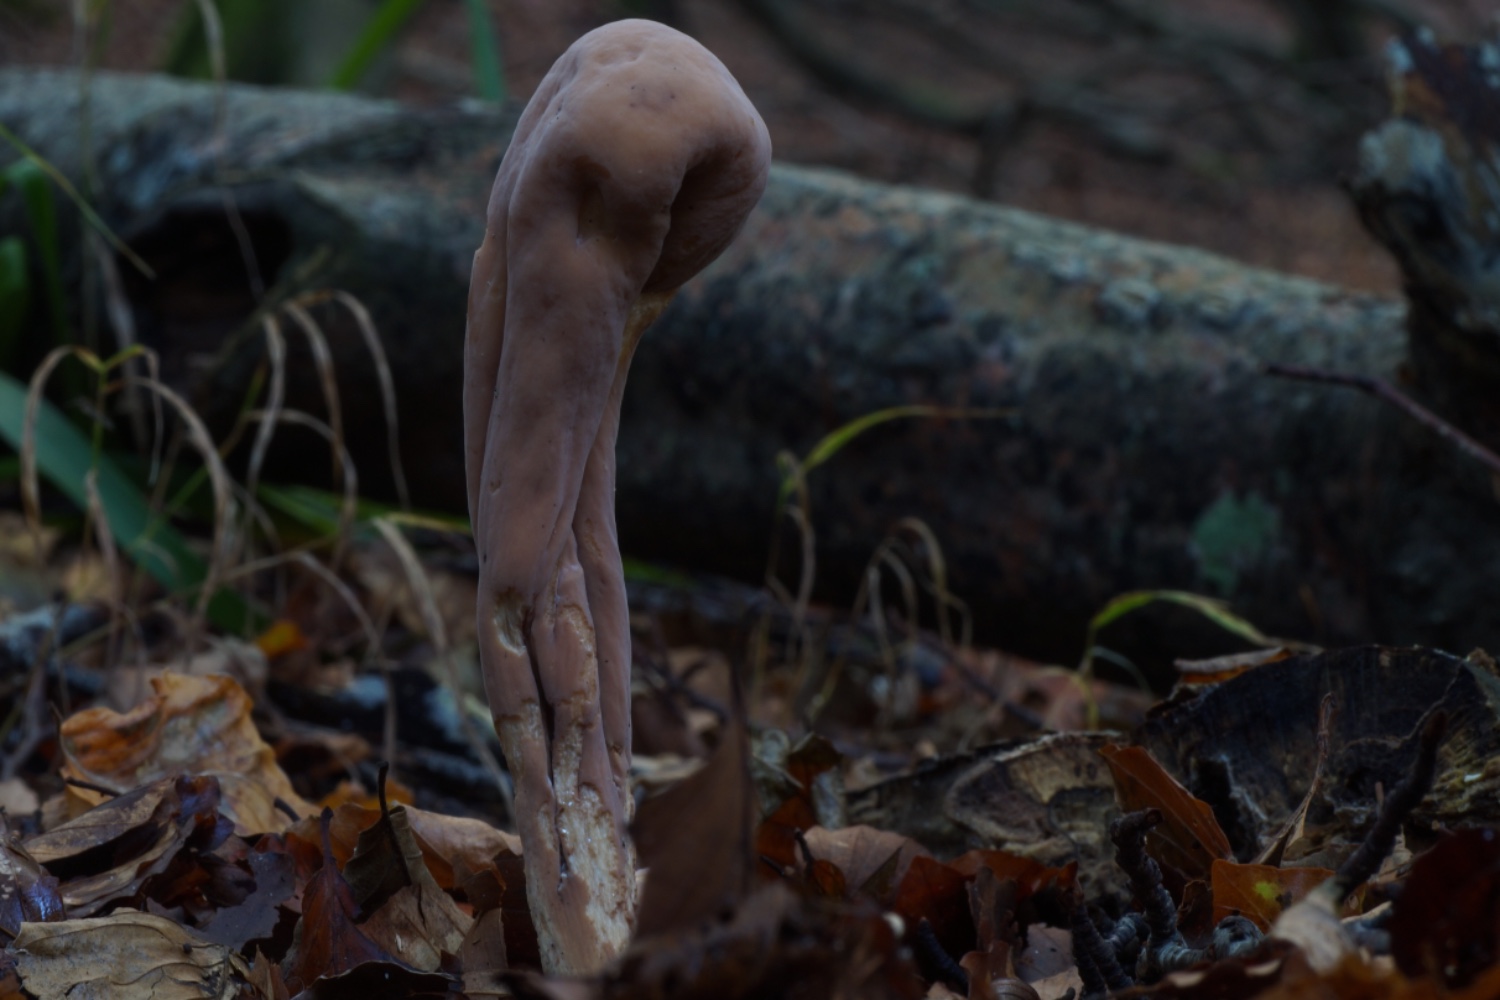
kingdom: Fungi
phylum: Basidiomycota
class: Agaricomycetes
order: Gomphales
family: Clavariadelphaceae
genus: Clavariadelphus
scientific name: Clavariadelphus pistillaris
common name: herkules-kæmpekølle
